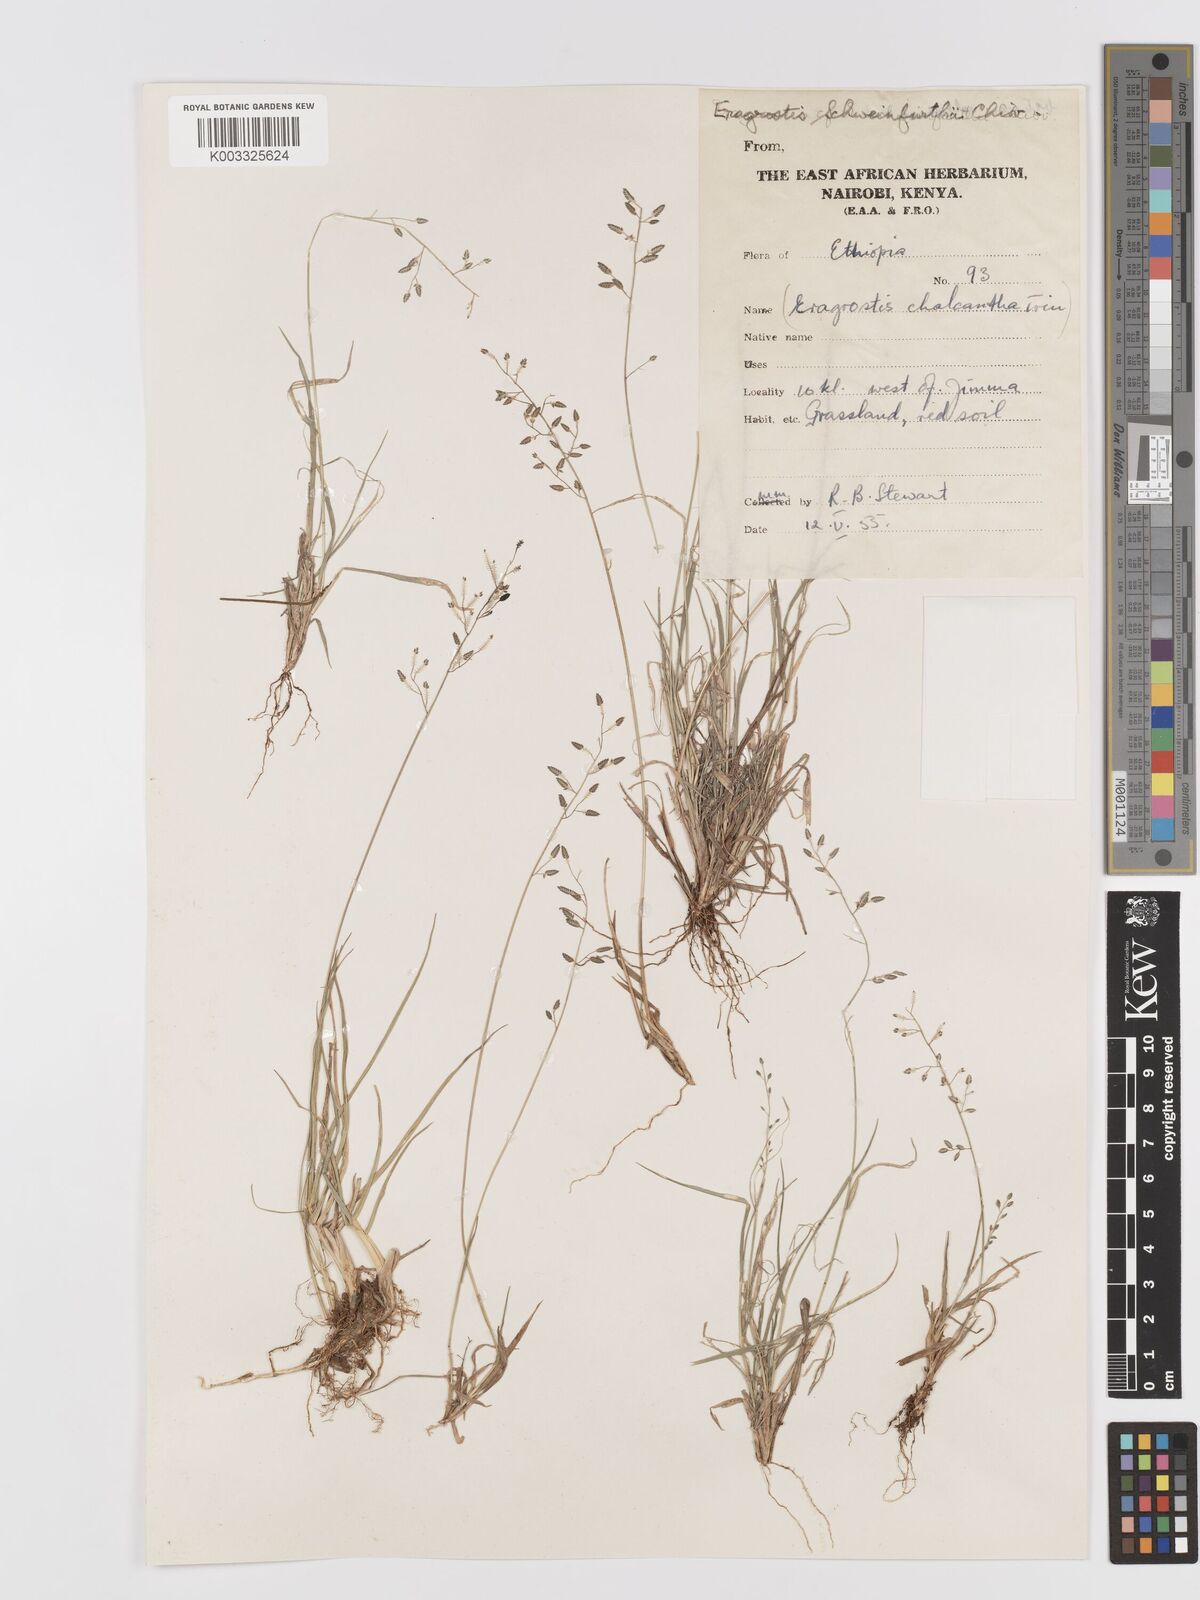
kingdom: Plantae
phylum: Tracheophyta
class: Liliopsida
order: Poales
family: Poaceae
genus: Eragrostis
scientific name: Eragrostis schweinfurthii
